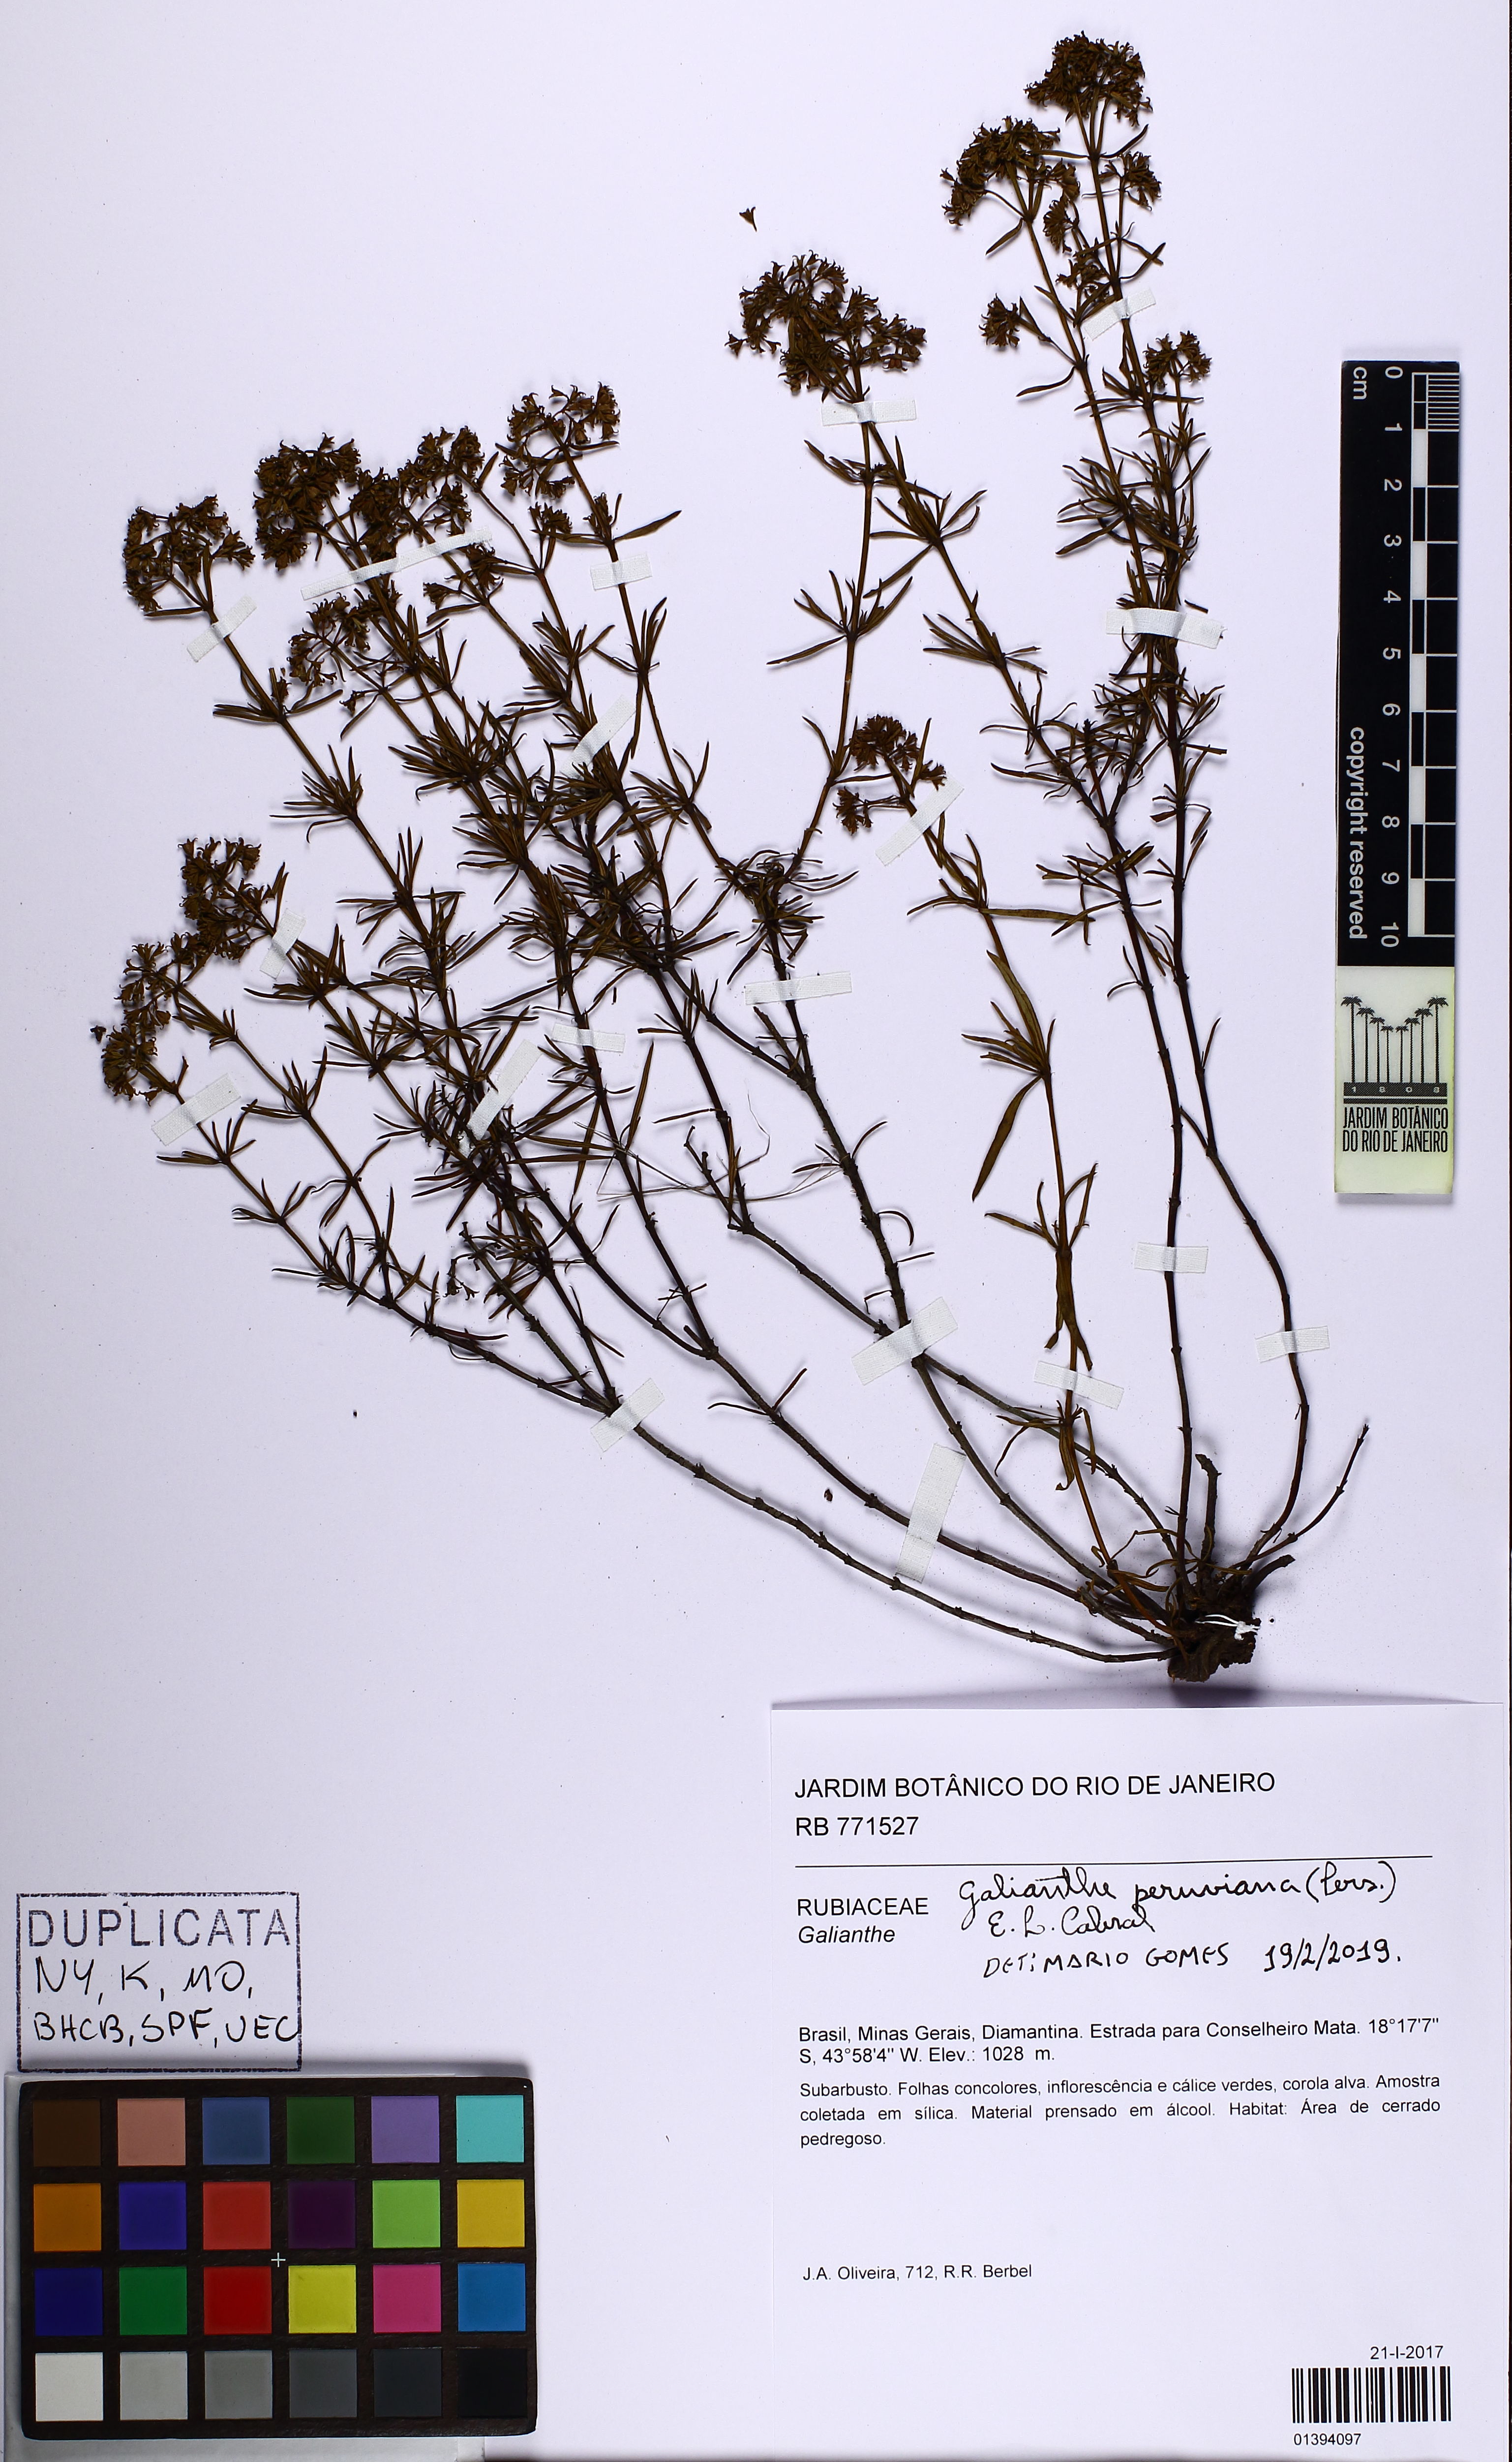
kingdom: Plantae
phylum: Tracheophyta
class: Magnoliopsida
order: Gentianales
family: Rubiaceae
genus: Galianthe
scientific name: Galianthe peruviana
